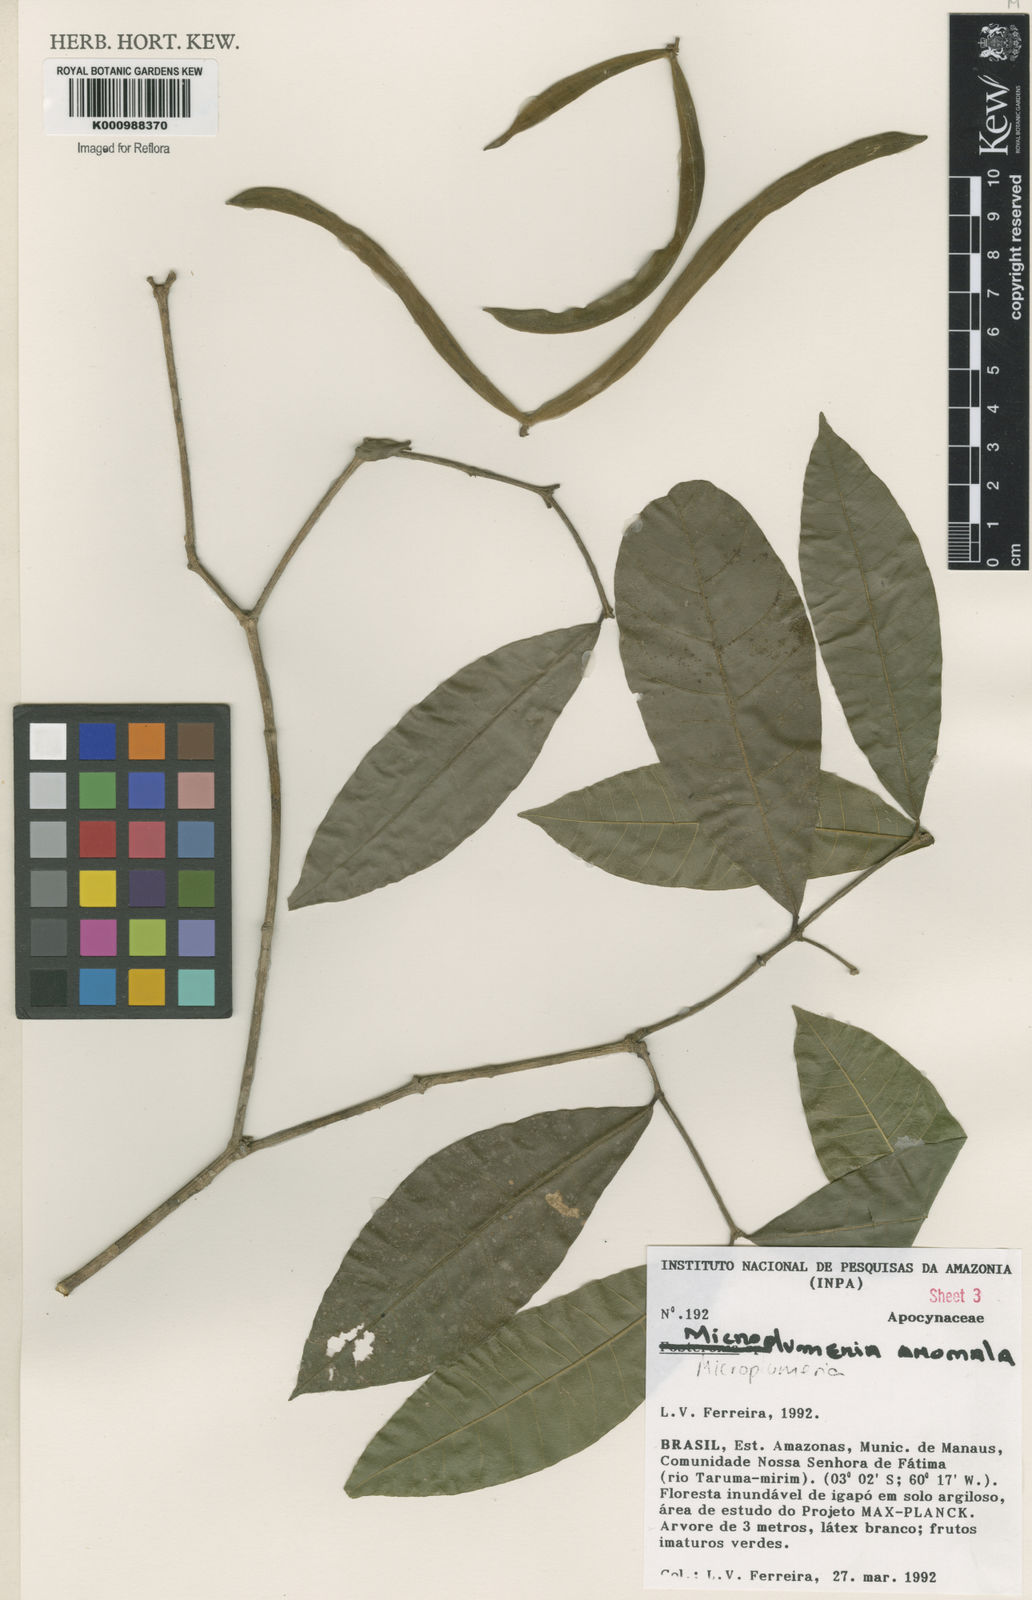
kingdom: Plantae
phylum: Tracheophyta
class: Magnoliopsida
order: Gentianales
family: Apocynaceae
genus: Microplumeria
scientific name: Microplumeria
